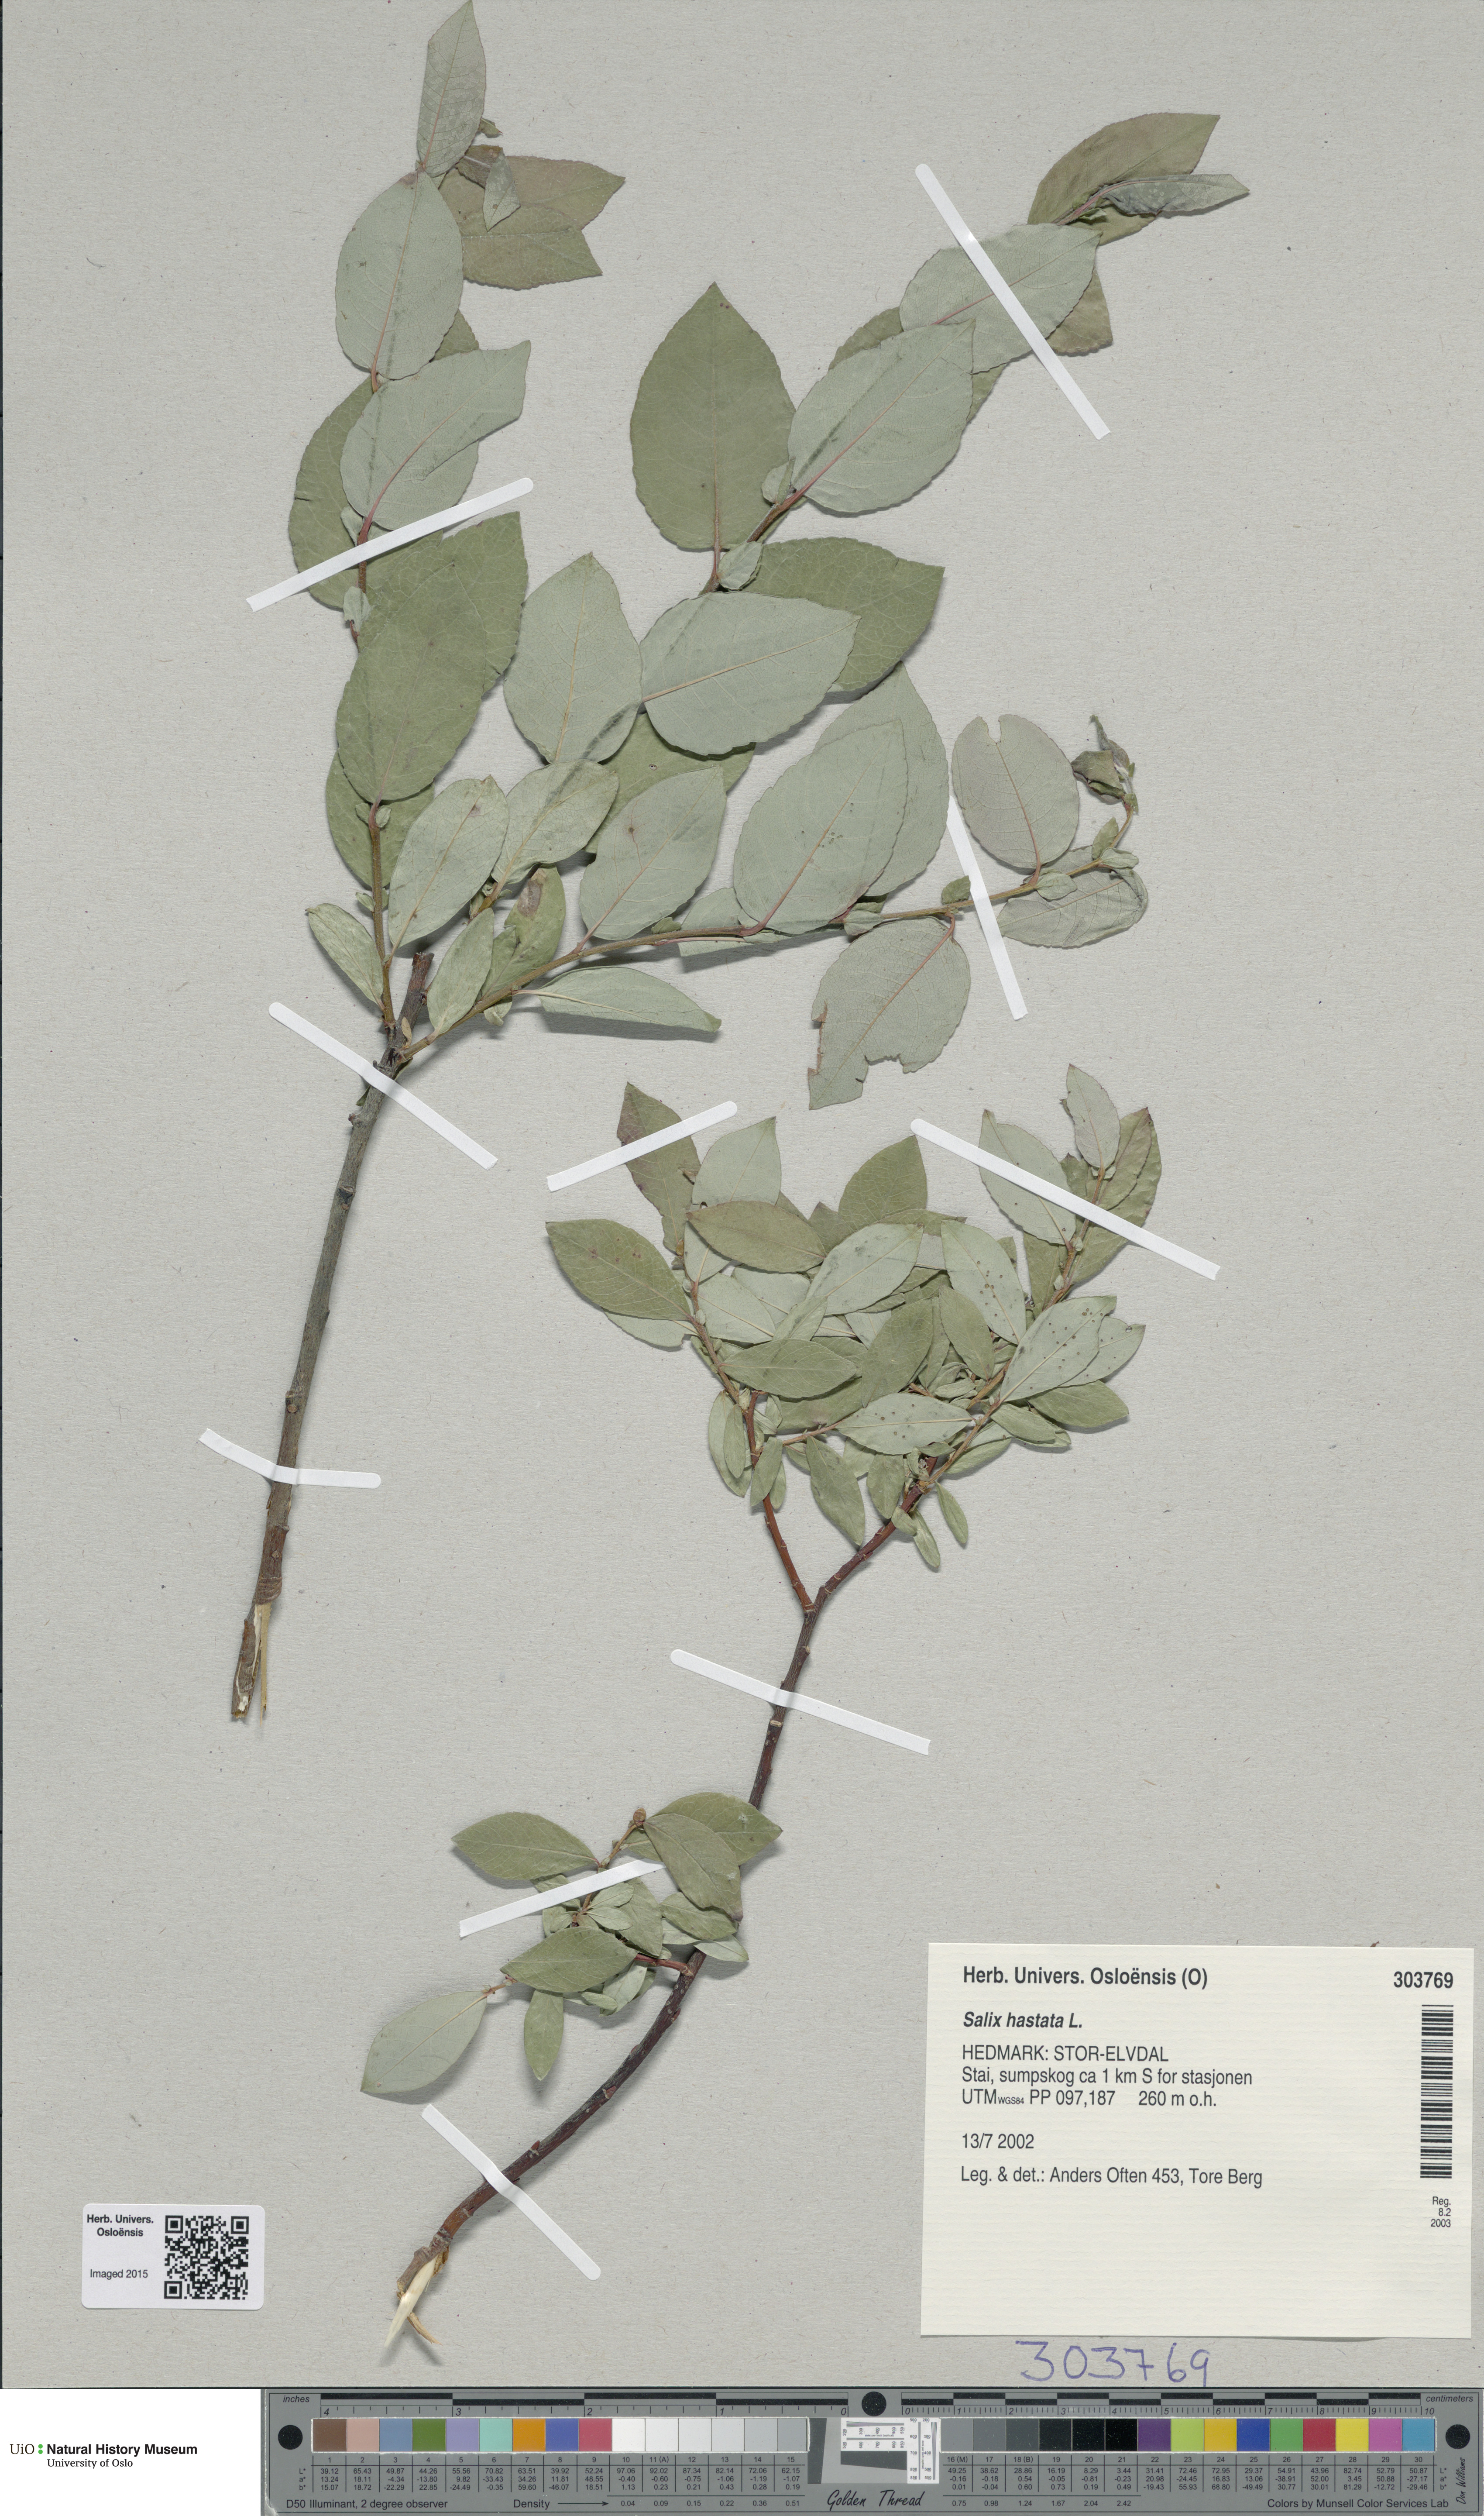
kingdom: Plantae
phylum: Tracheophyta
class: Magnoliopsida
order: Malpighiales
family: Salicaceae
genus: Salix
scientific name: Salix hastata
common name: Halberd willow
